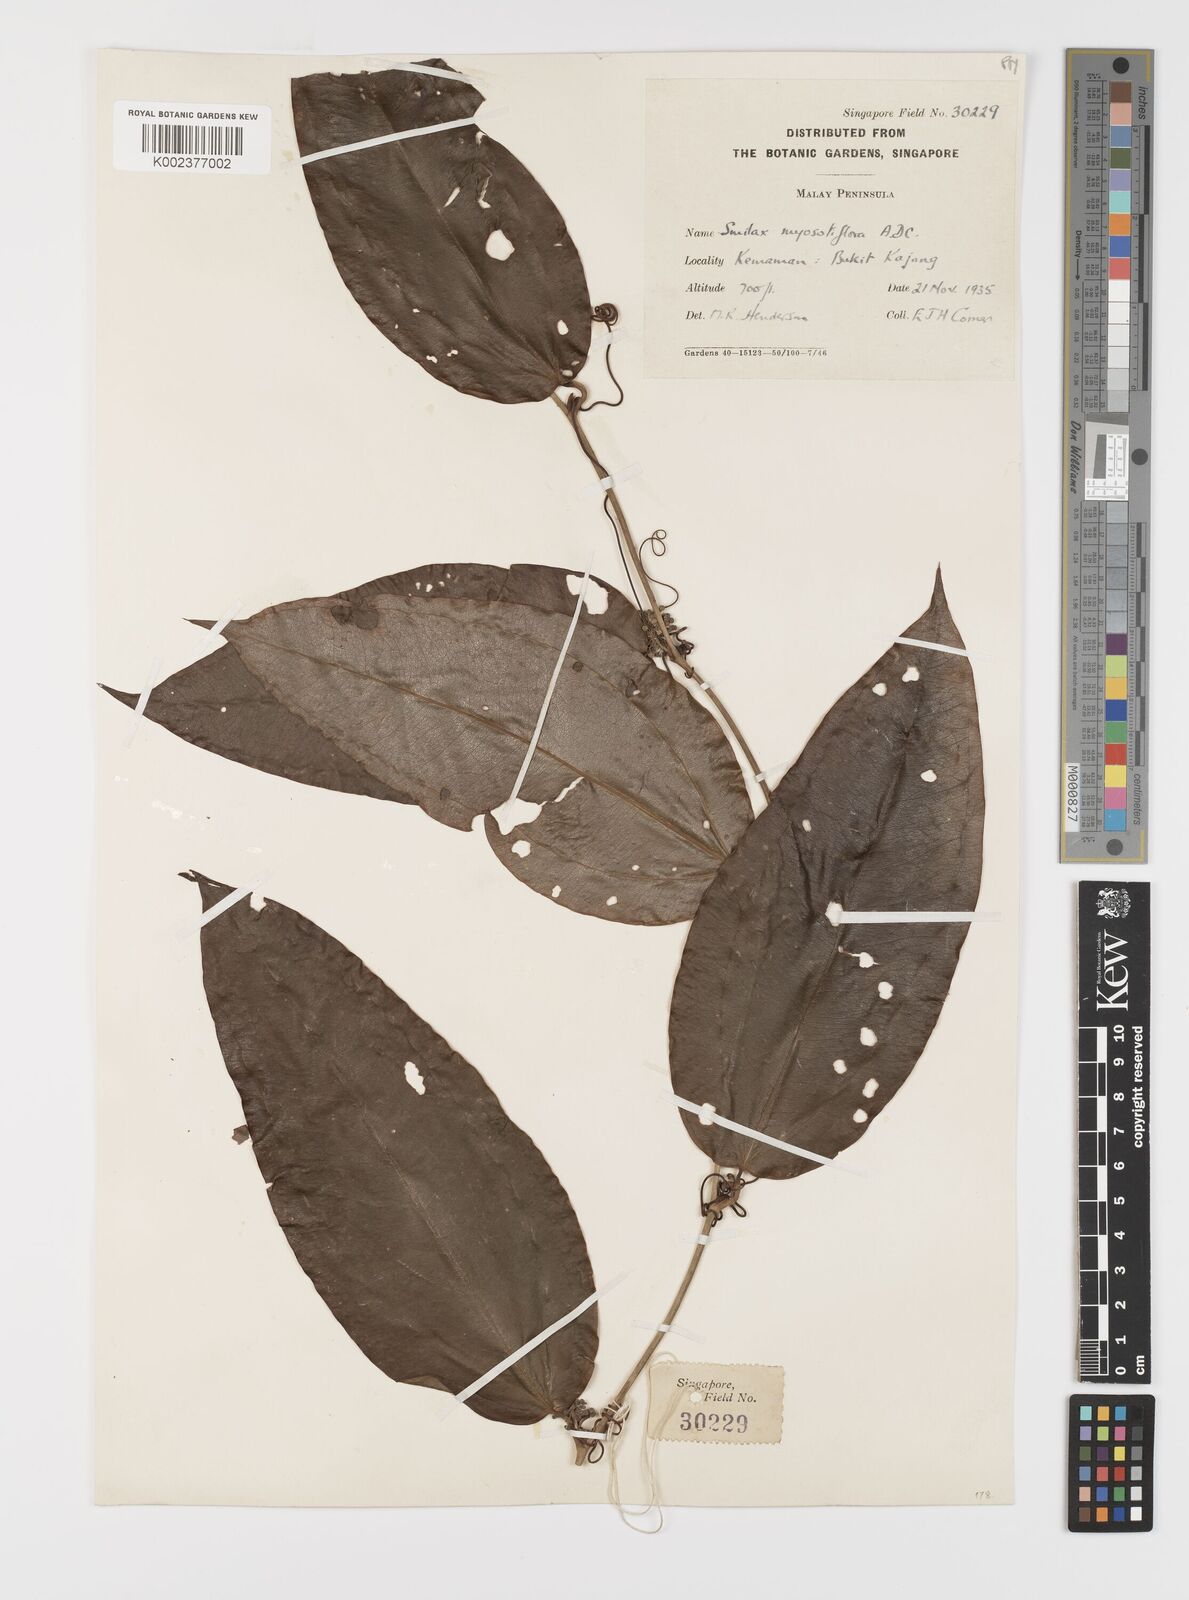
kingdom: Plantae
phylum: Tracheophyta
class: Liliopsida
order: Liliales
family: Smilacaceae
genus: Smilax
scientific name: Smilax myosotiflora
